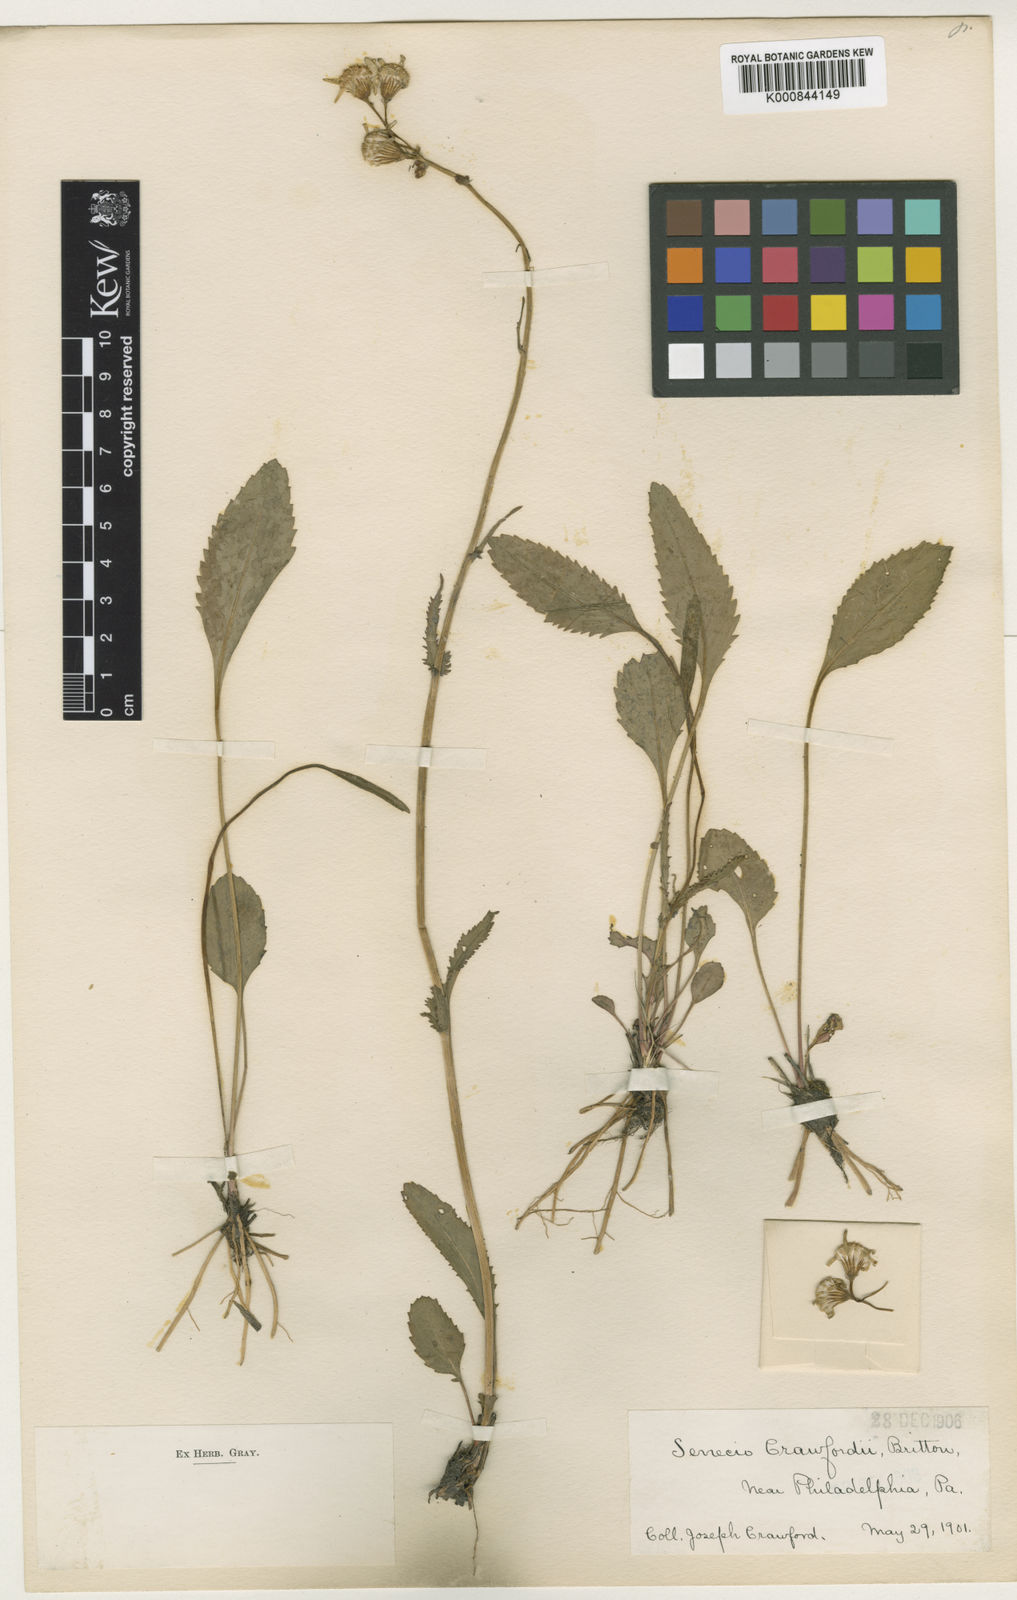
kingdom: Plantae
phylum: Tracheophyta
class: Magnoliopsida
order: Asterales
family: Asteraceae
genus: Packera
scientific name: Packera
